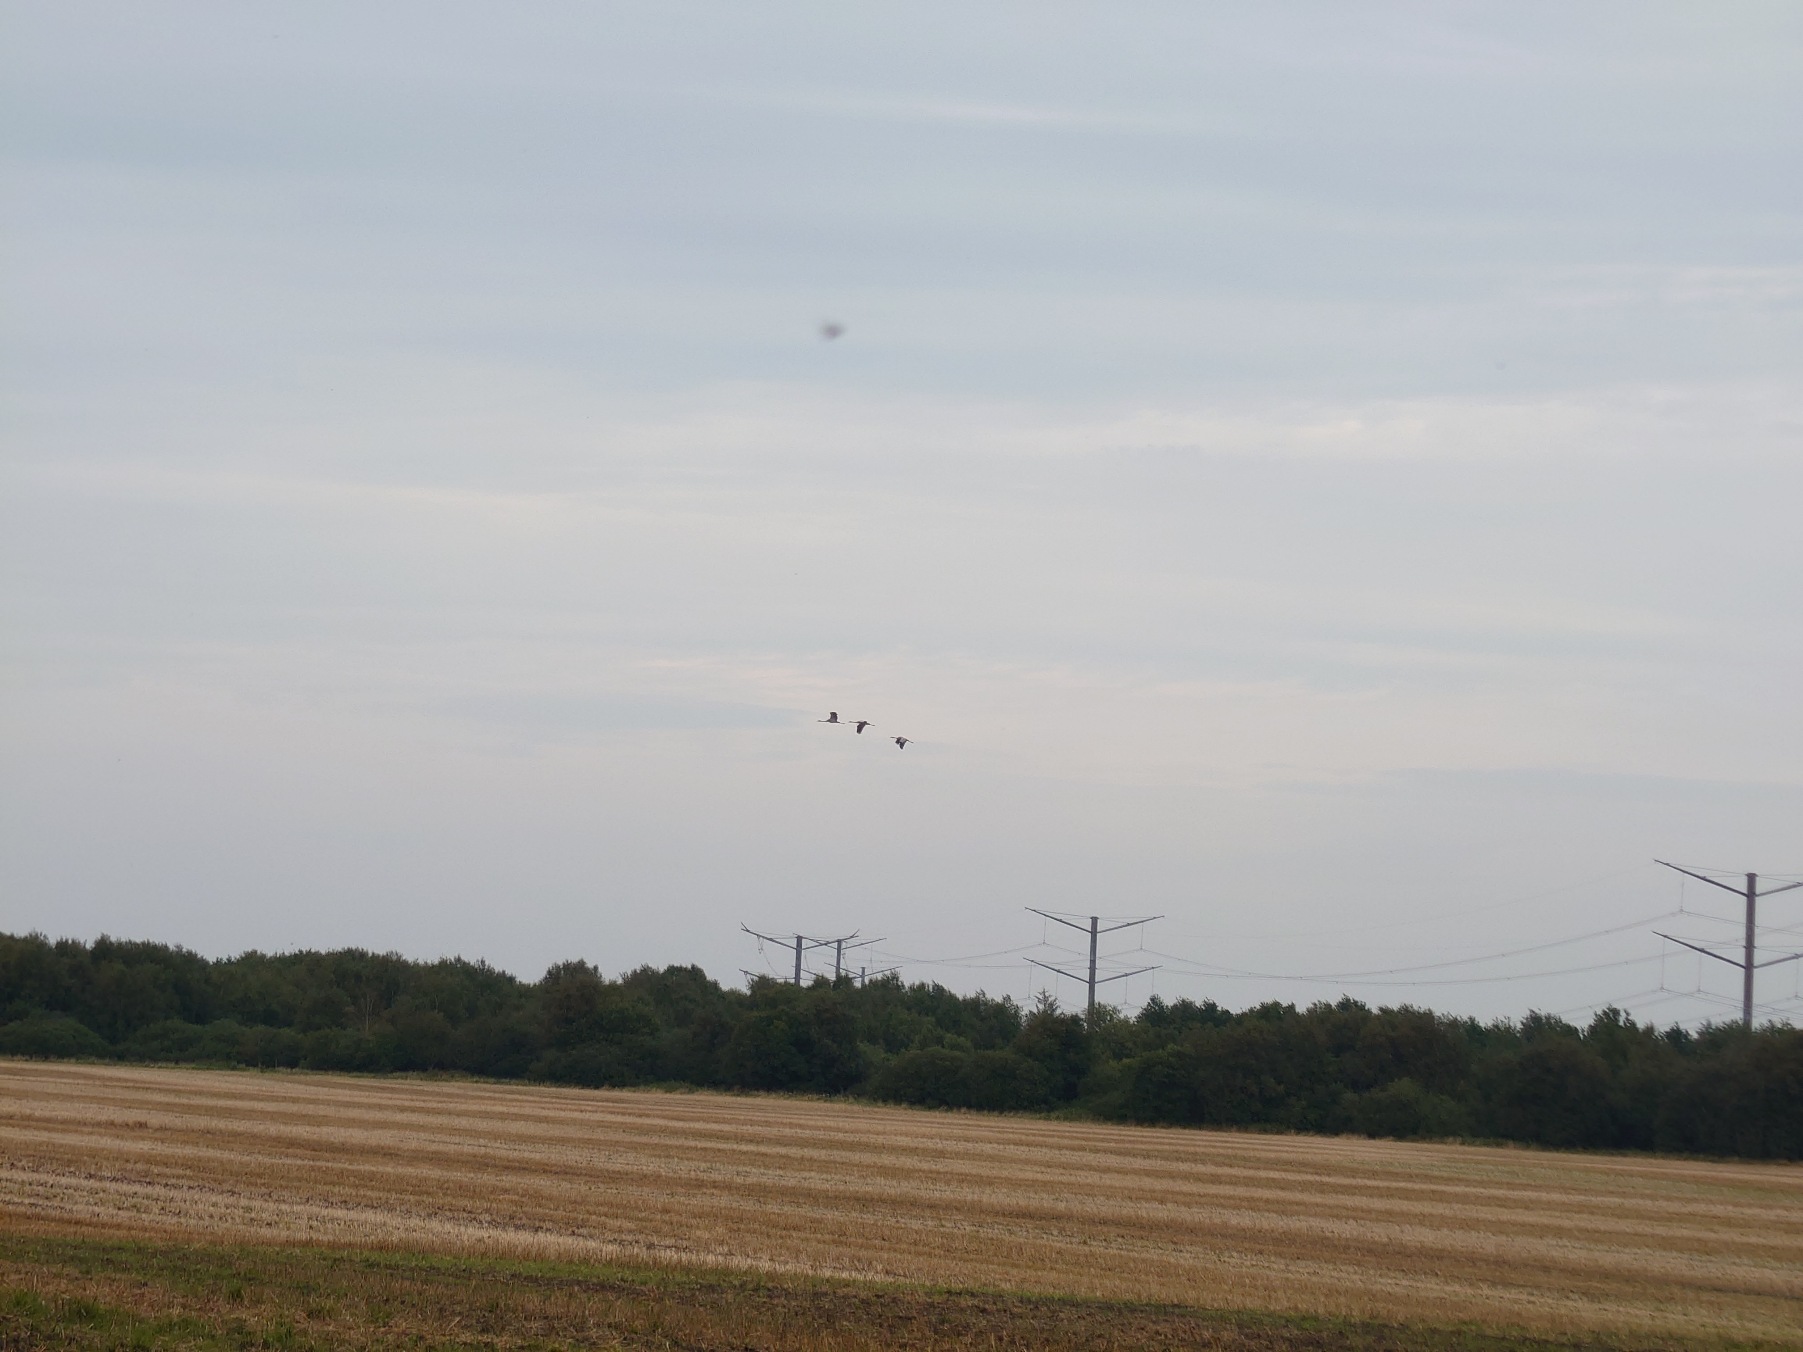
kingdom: Animalia
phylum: Chordata
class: Aves
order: Gruiformes
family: Gruidae
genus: Grus
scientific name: Grus grus
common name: Trane
